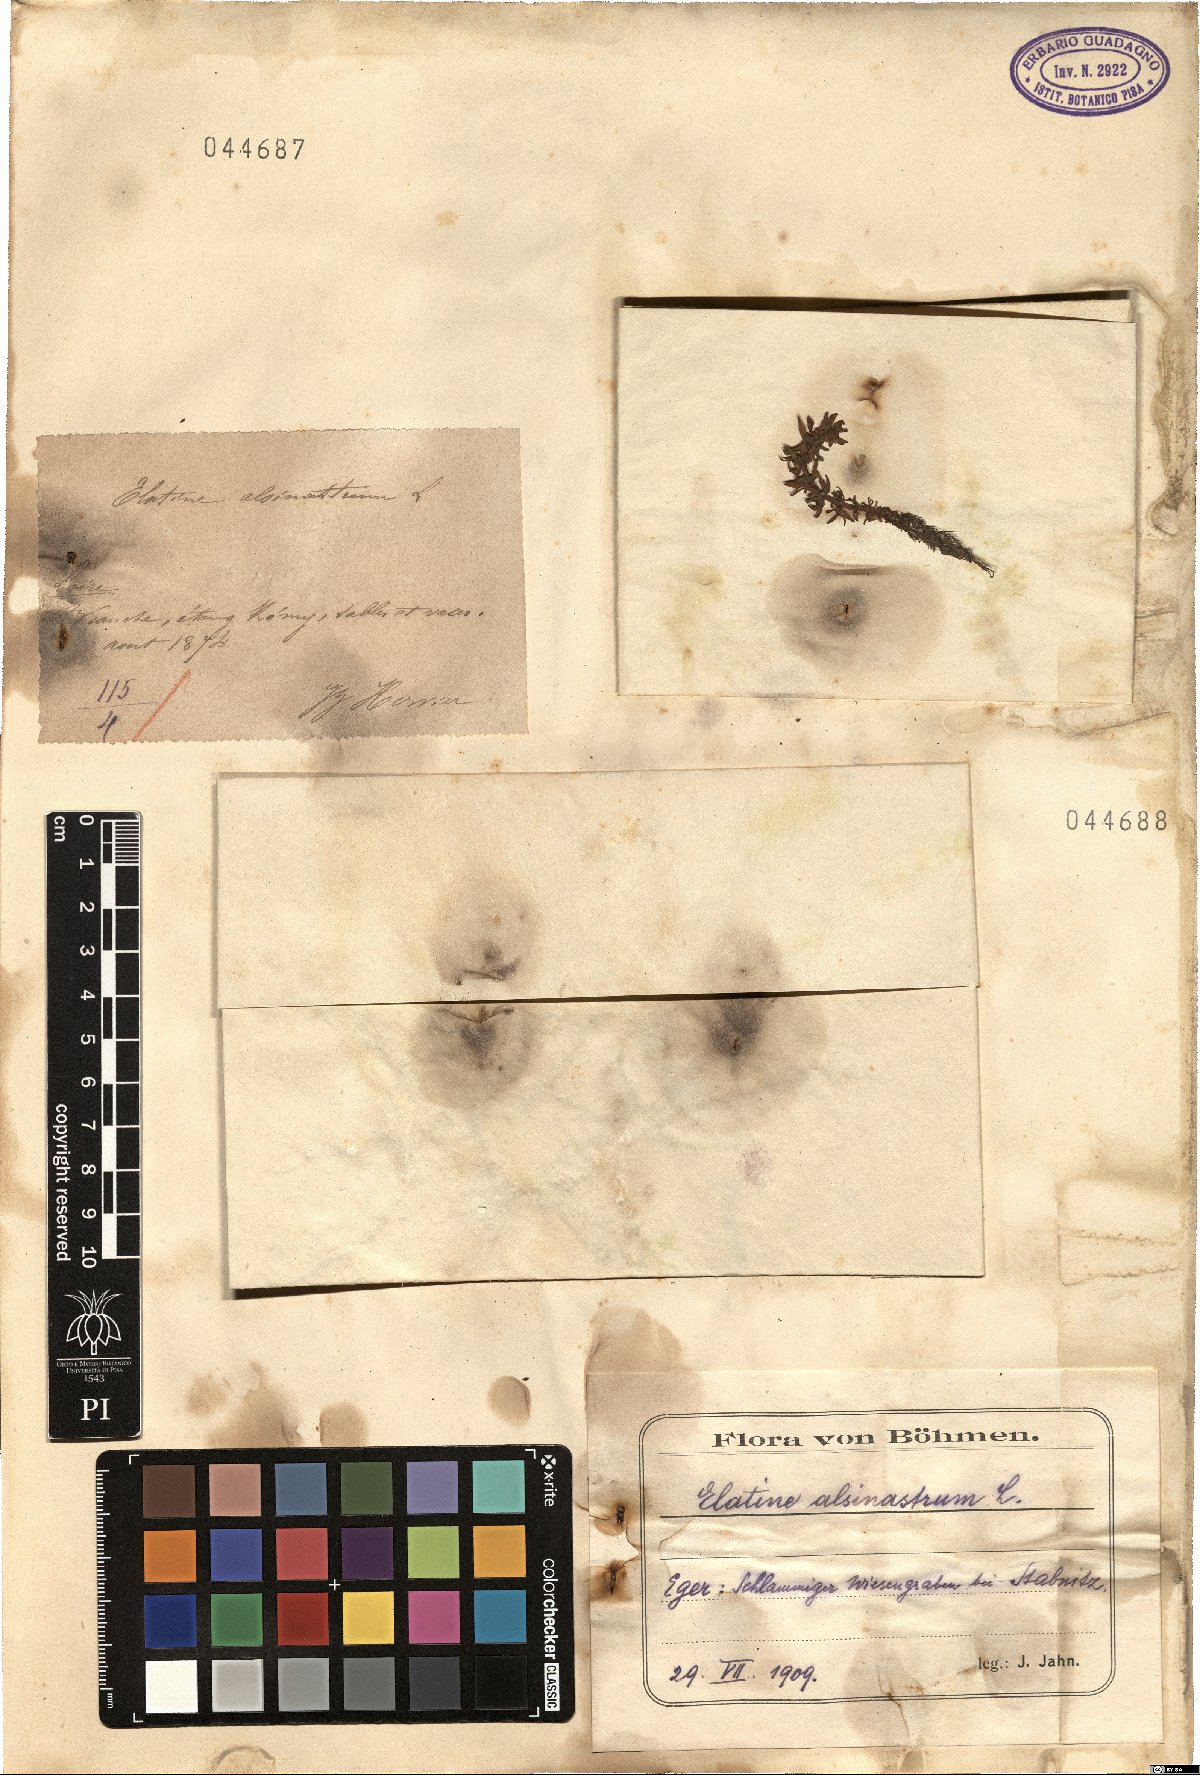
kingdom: Plantae
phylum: Tracheophyta
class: Magnoliopsida
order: Malpighiales
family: Elatinaceae
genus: Elatine
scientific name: Elatine alsinastrum
